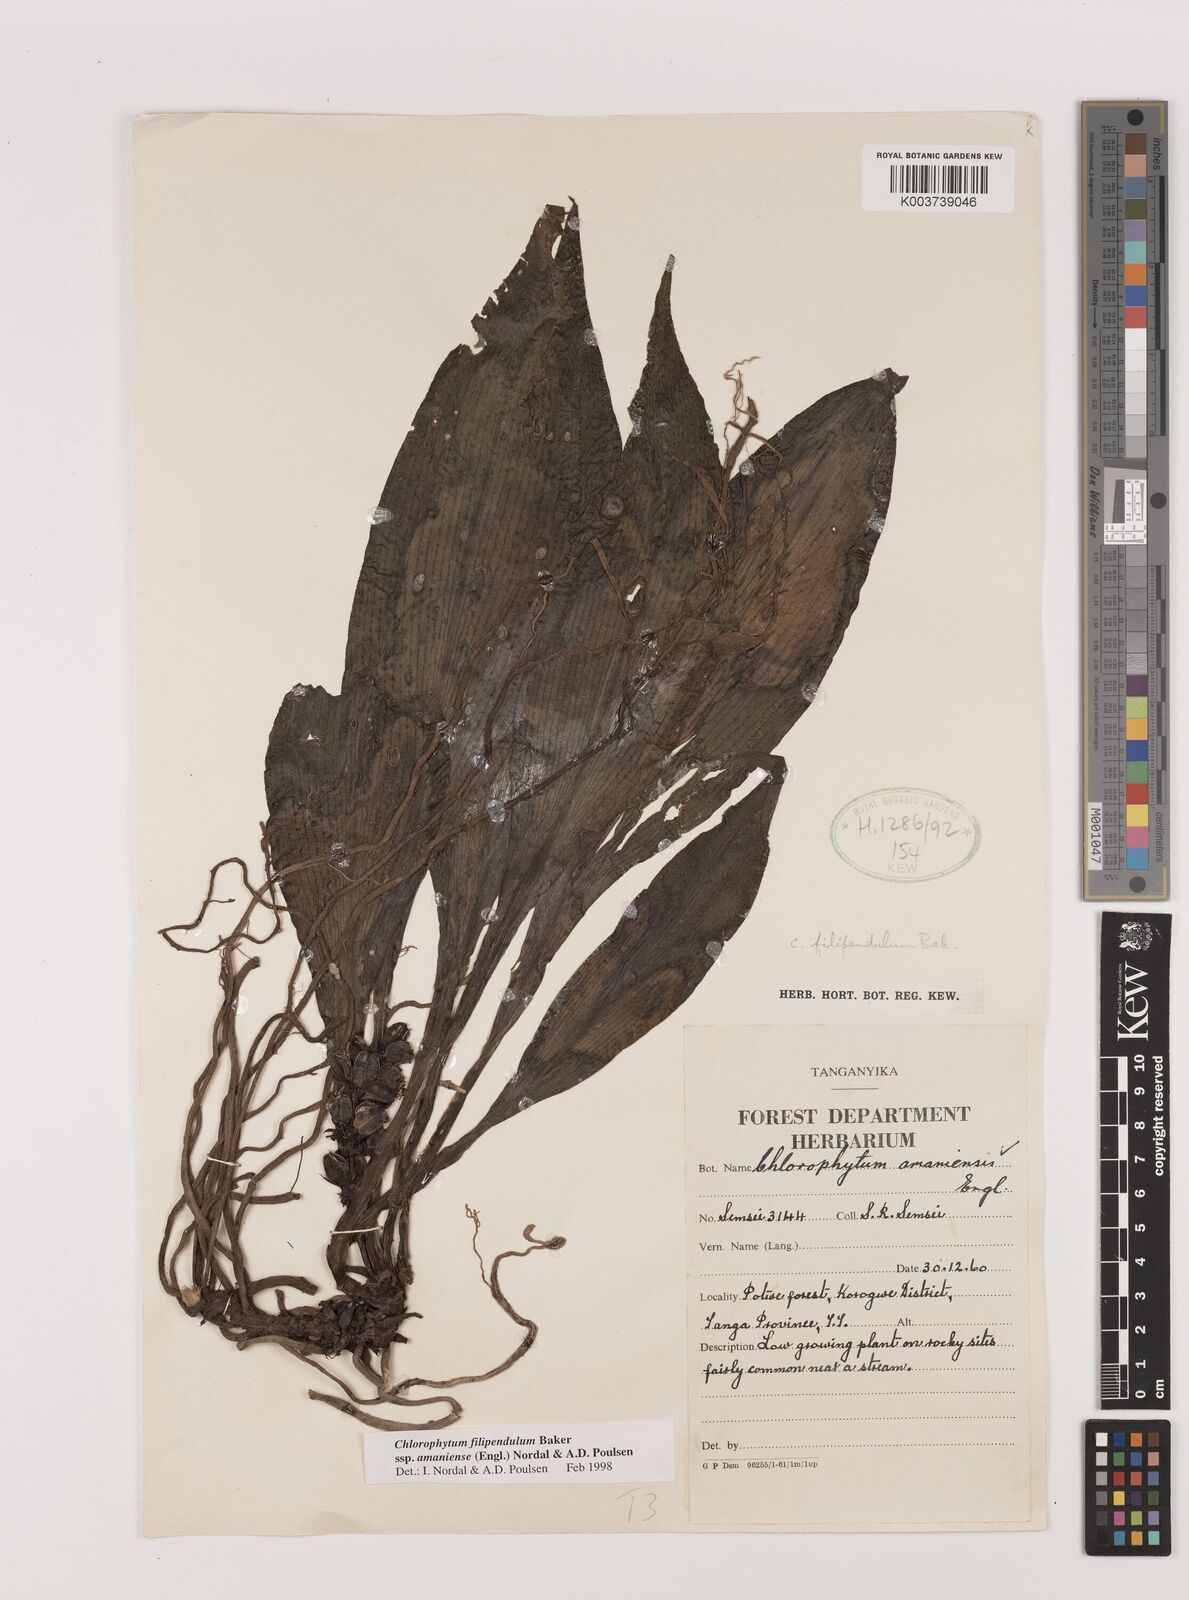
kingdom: Plantae
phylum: Tracheophyta
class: Liliopsida
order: Asparagales
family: Asparagaceae
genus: Chlorophytum
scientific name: Chlorophytum filipendulum
